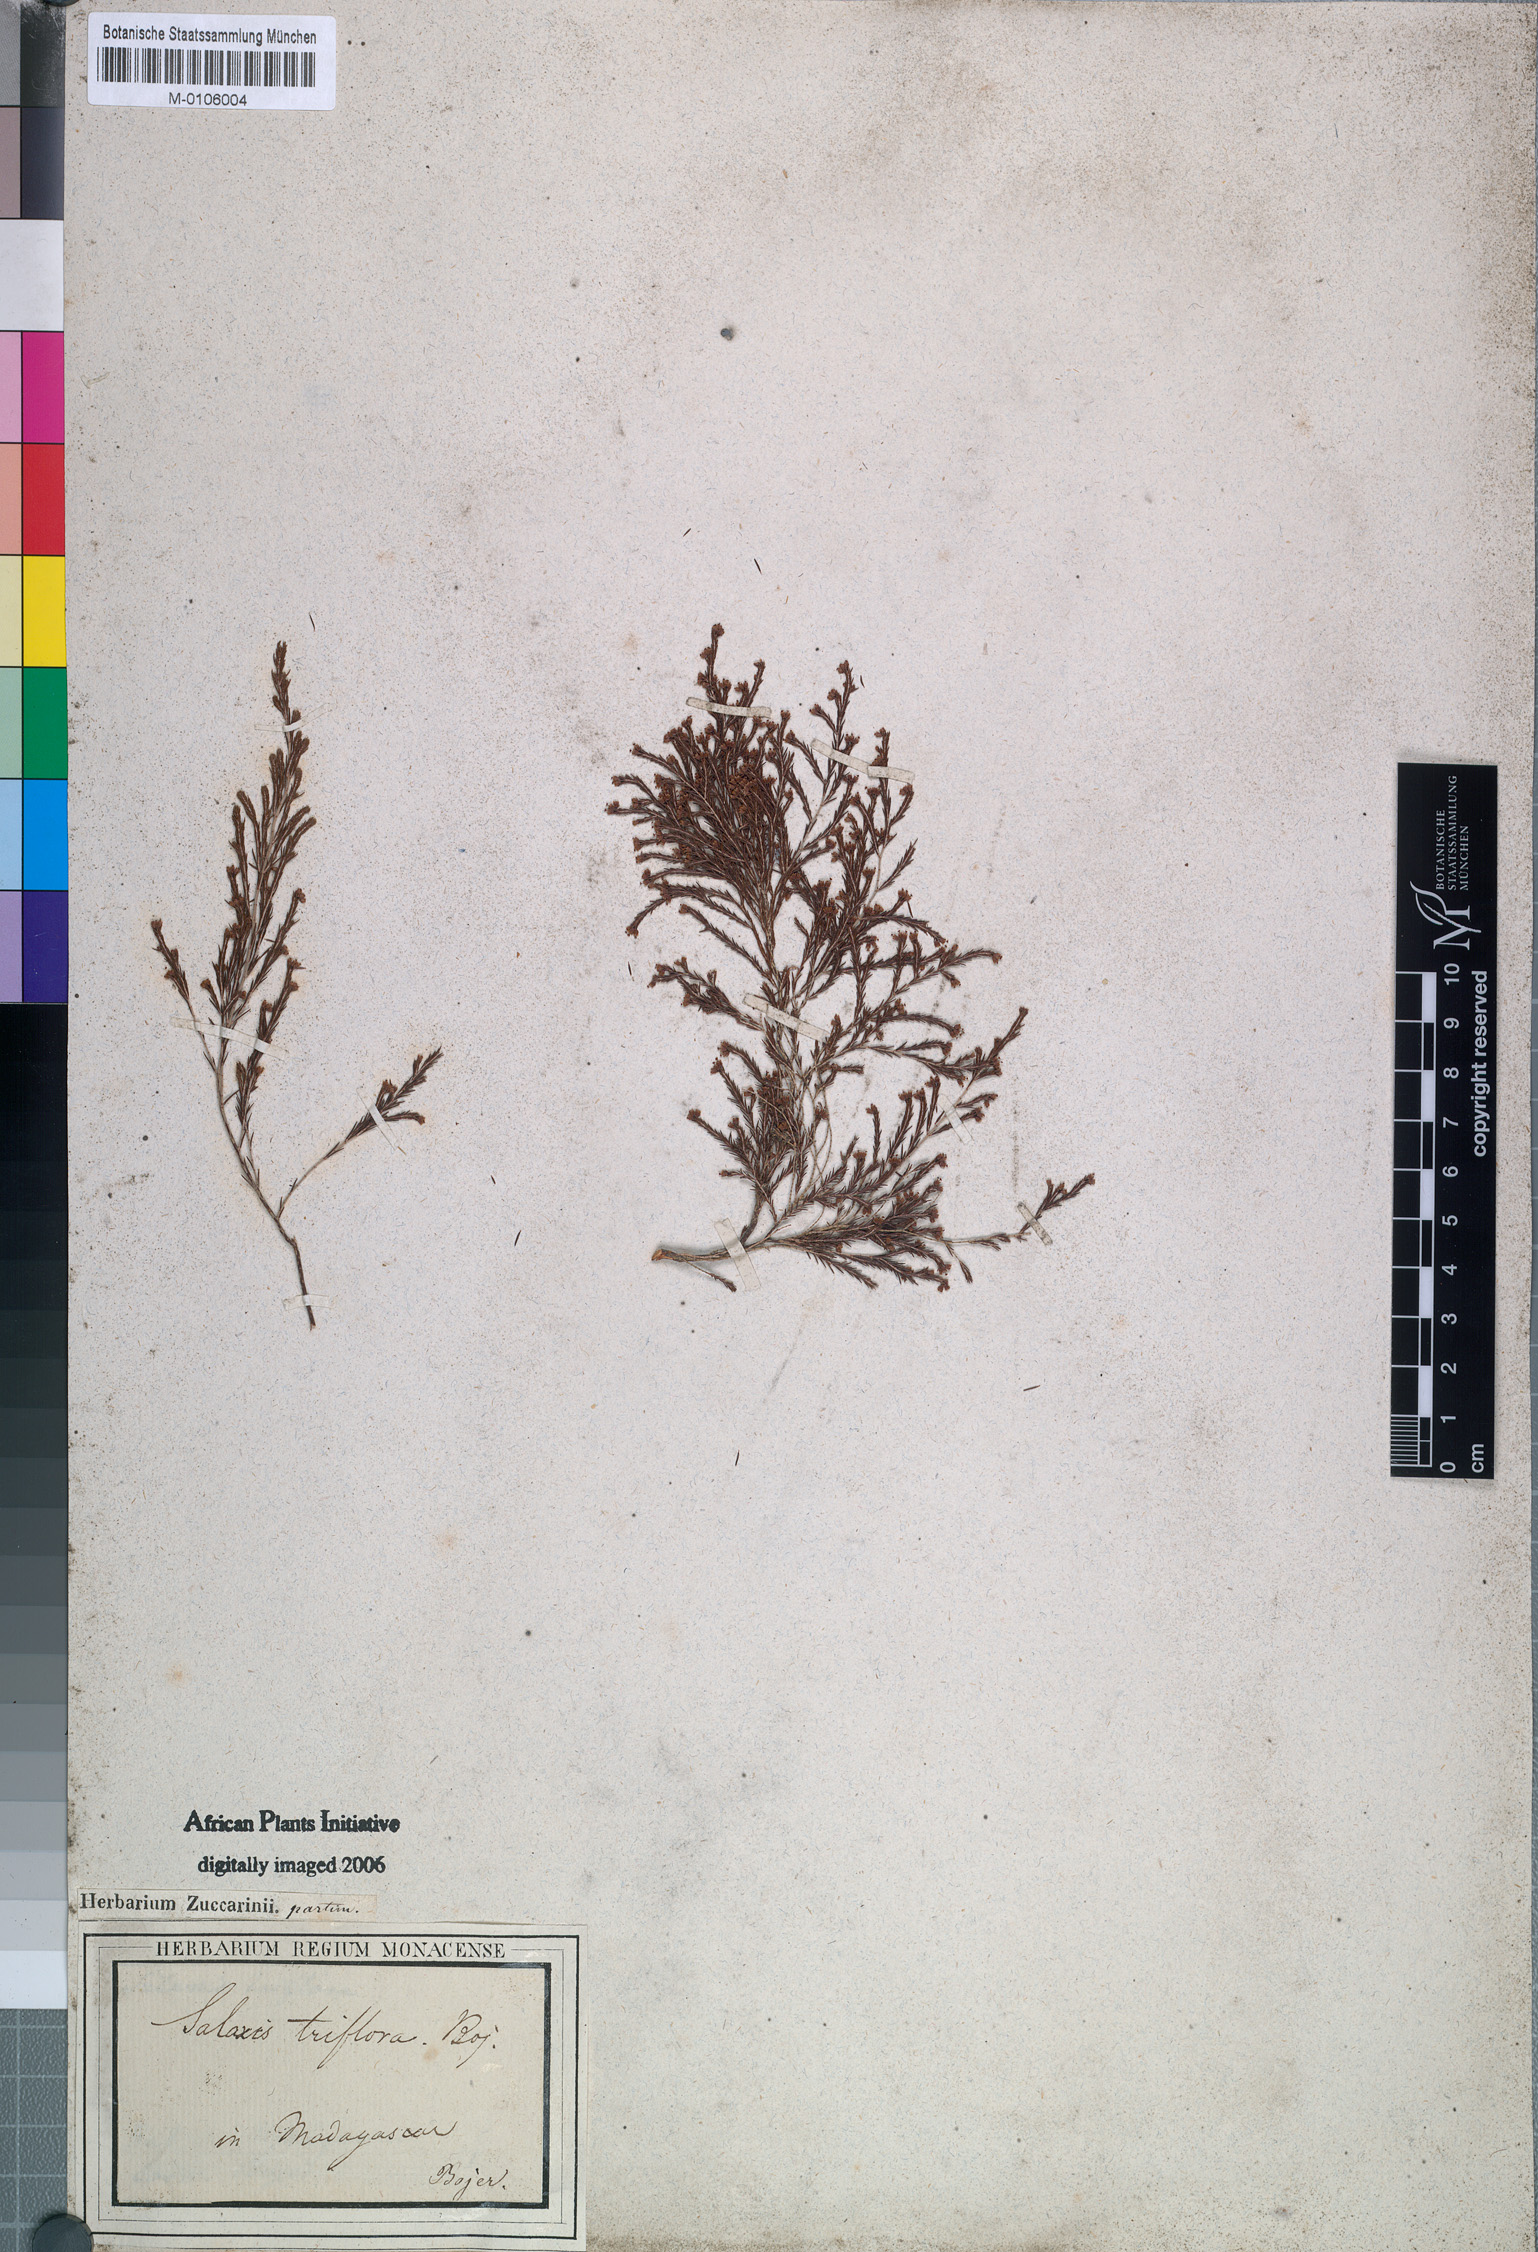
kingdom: Plantae
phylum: Tracheophyta
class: Magnoliopsida
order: Ericales
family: Ericaceae
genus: Erica
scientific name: Erica
